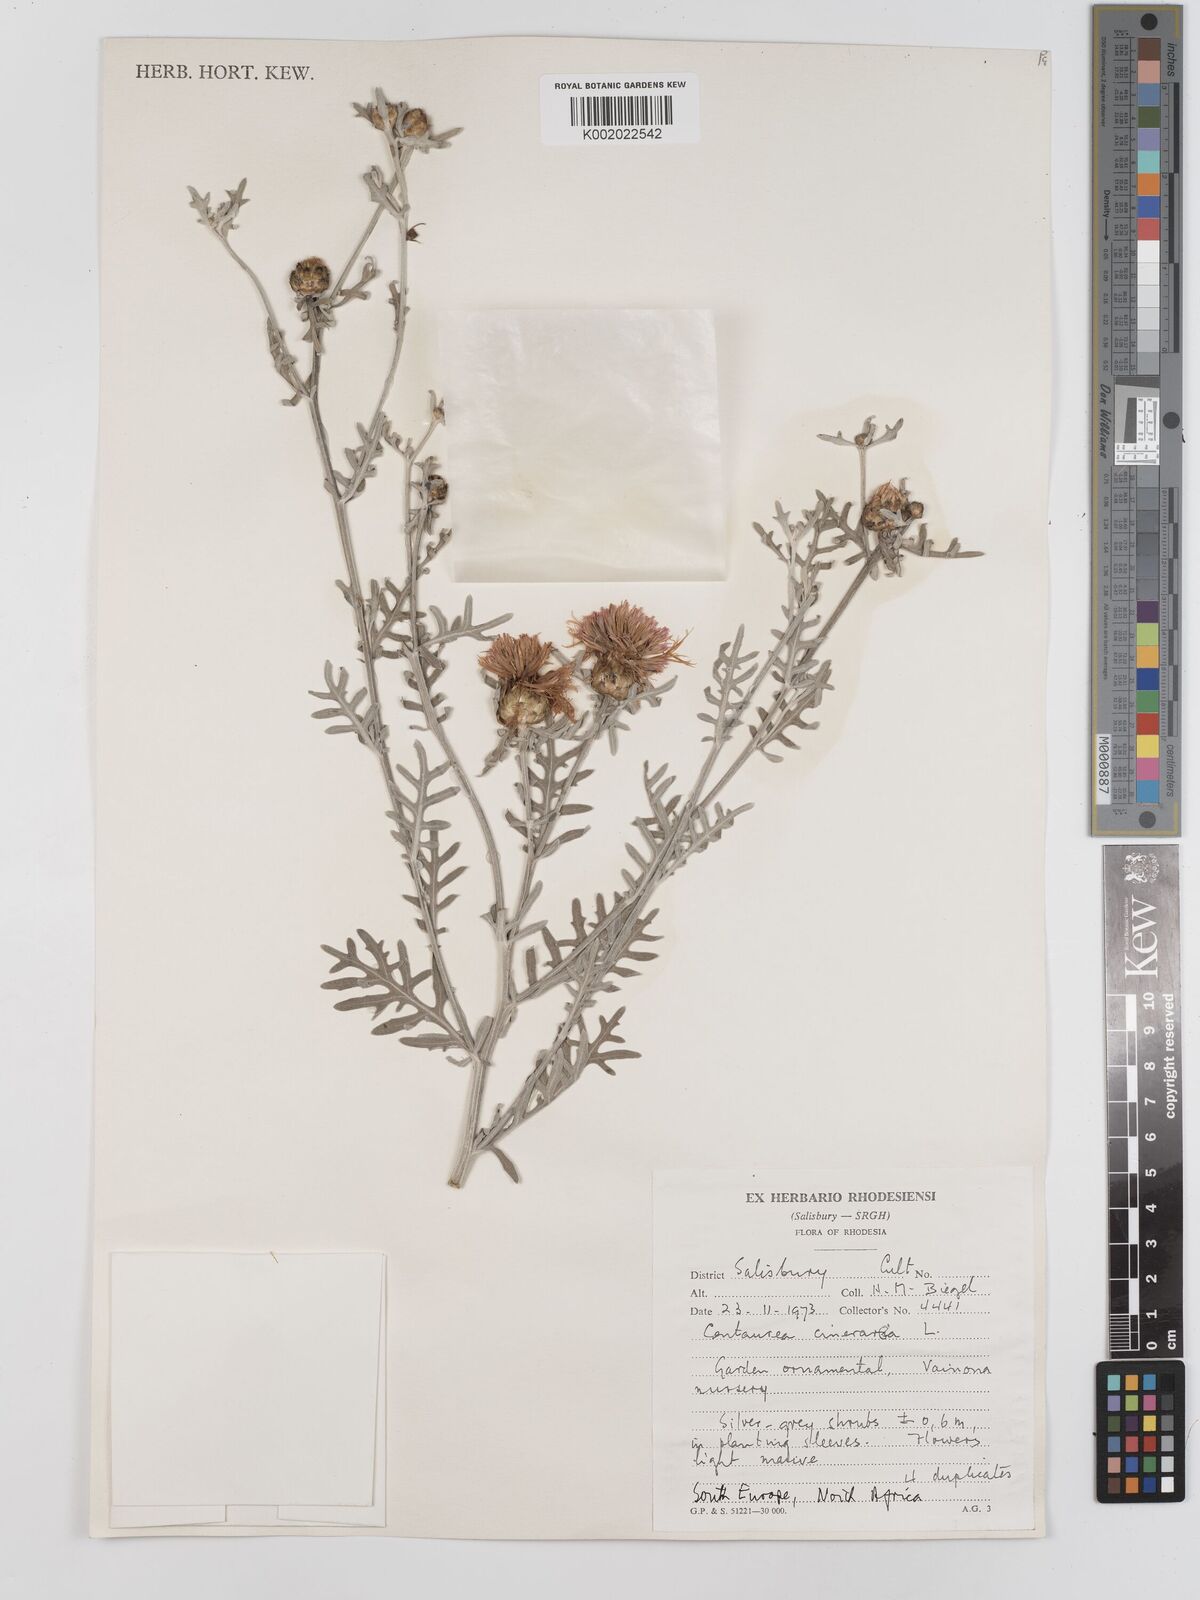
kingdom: Plantae
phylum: Tracheophyta
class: Magnoliopsida
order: Asterales
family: Asteraceae
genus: Centaurea
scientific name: Centaurea
